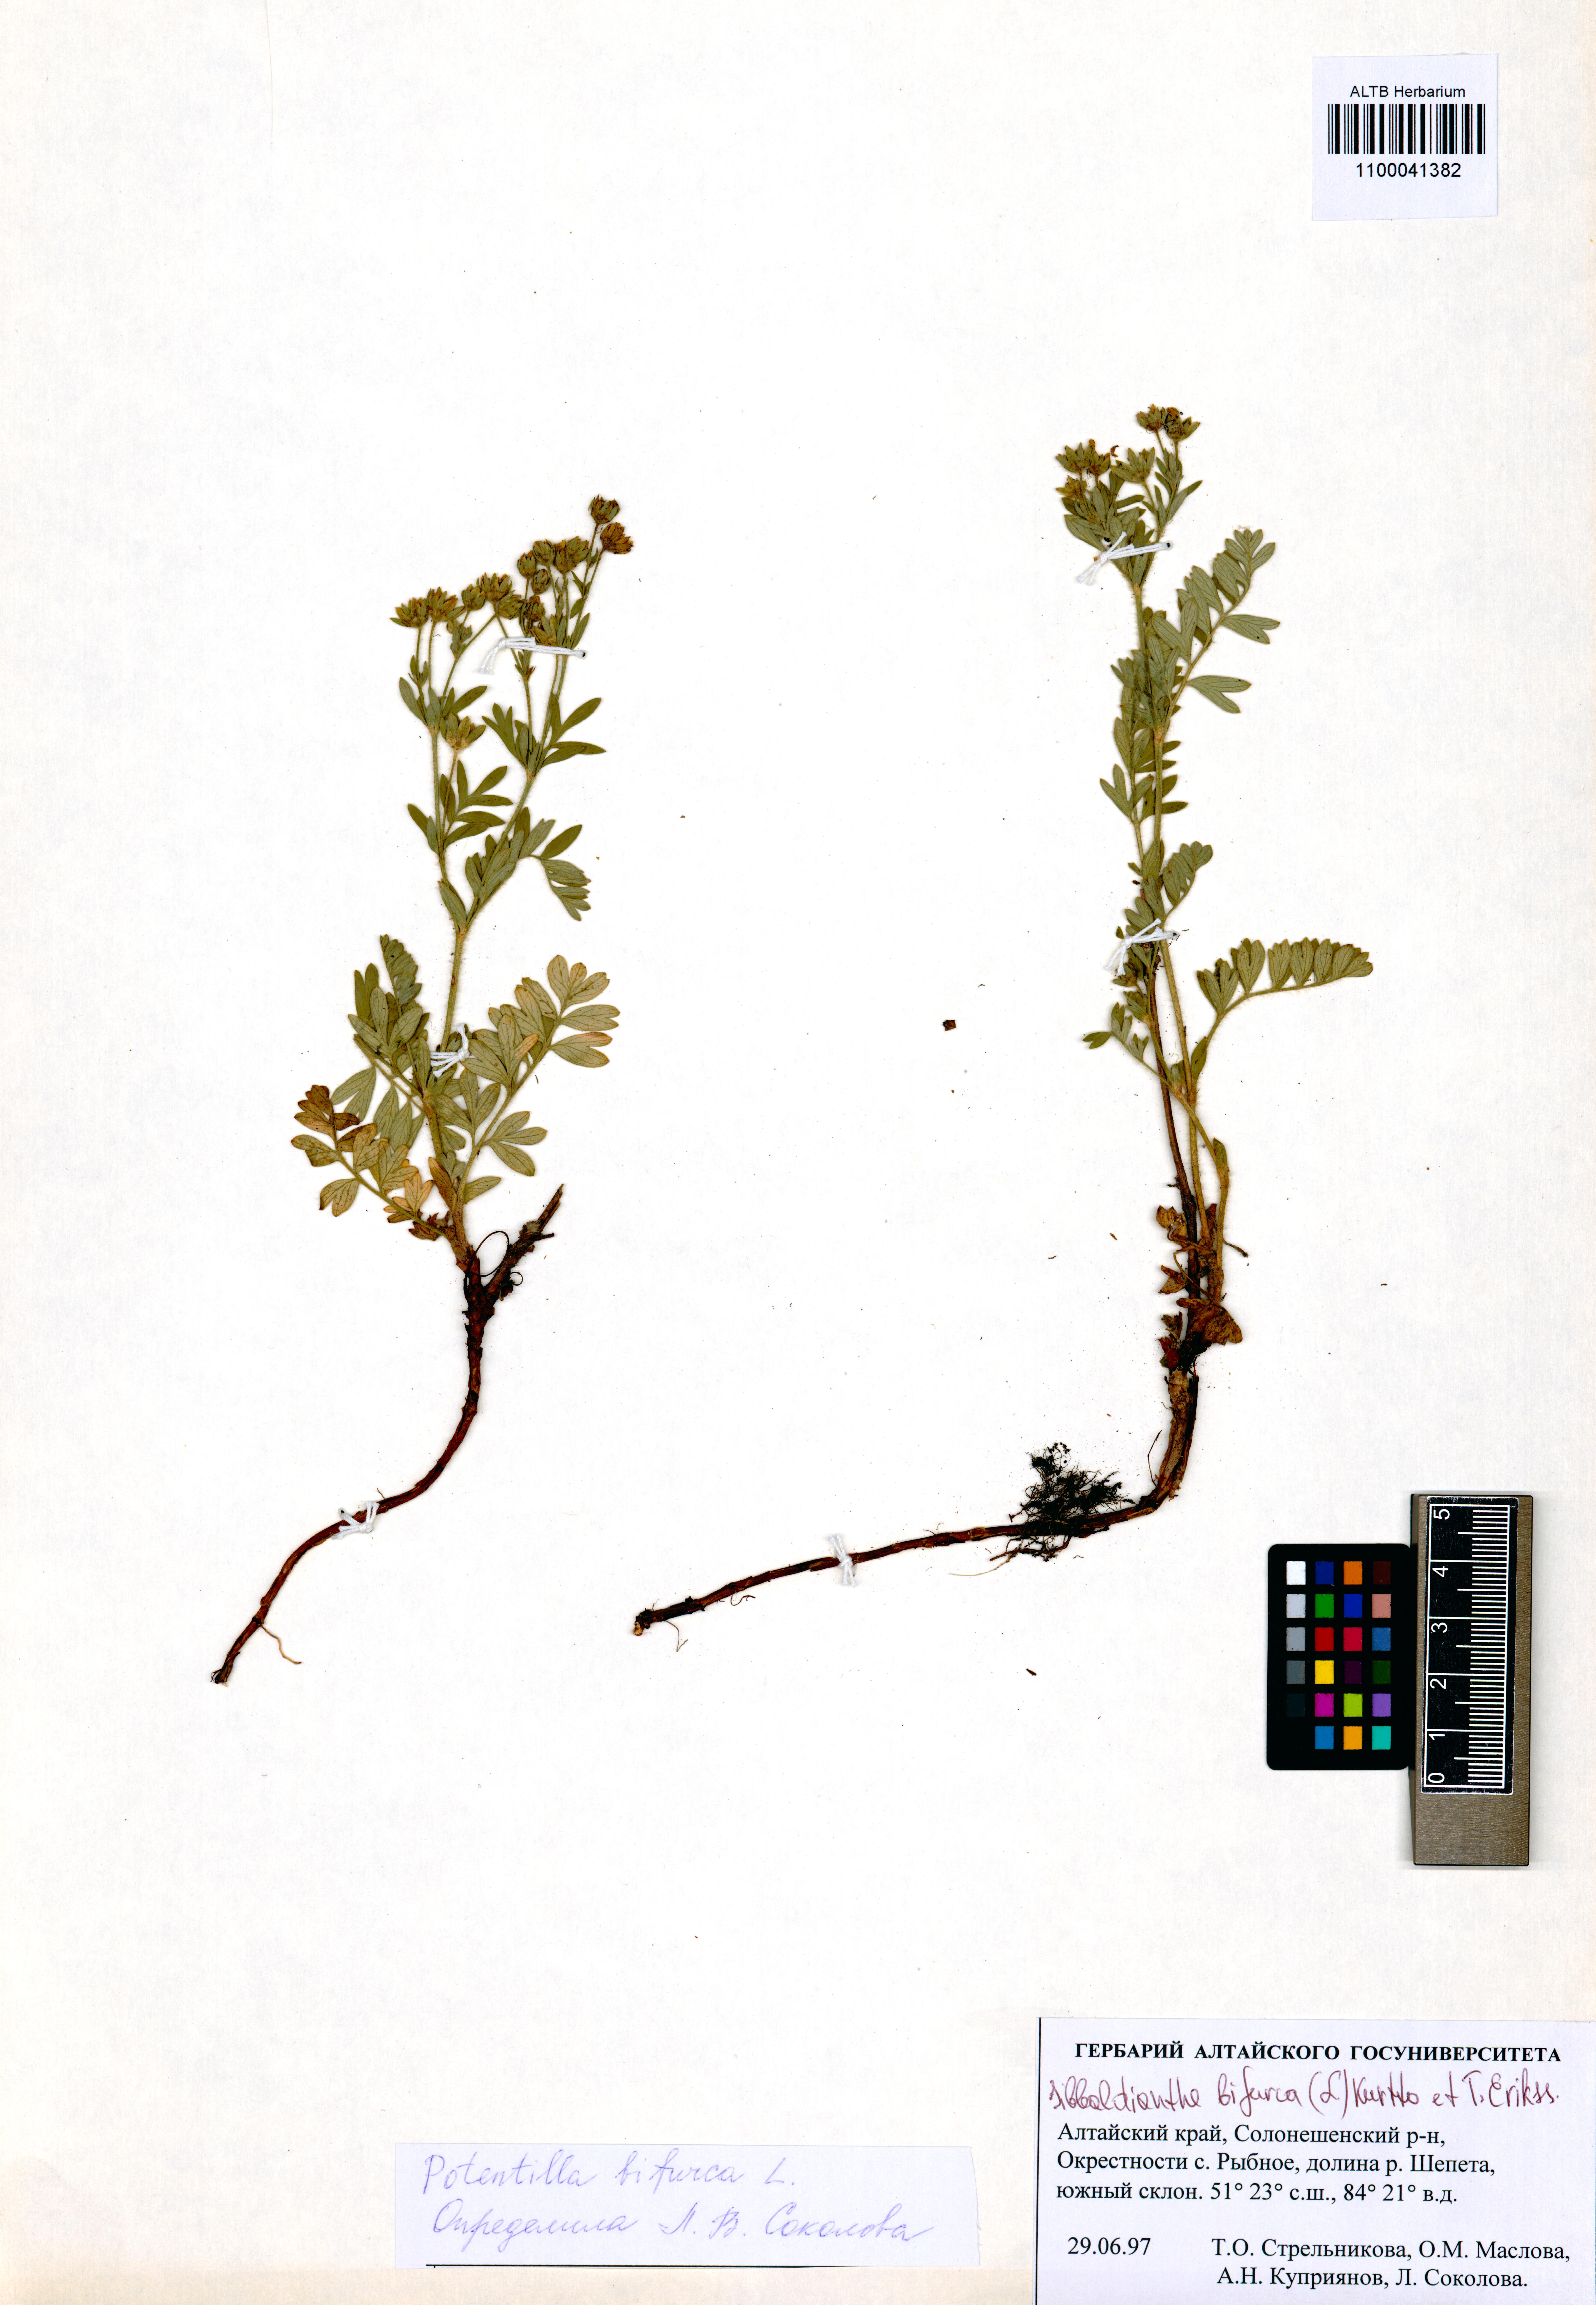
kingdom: Plantae
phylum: Tracheophyta
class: Magnoliopsida
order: Rosales
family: Rosaceae
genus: Sibbaldianthe
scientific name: Sibbaldianthe bifurca
